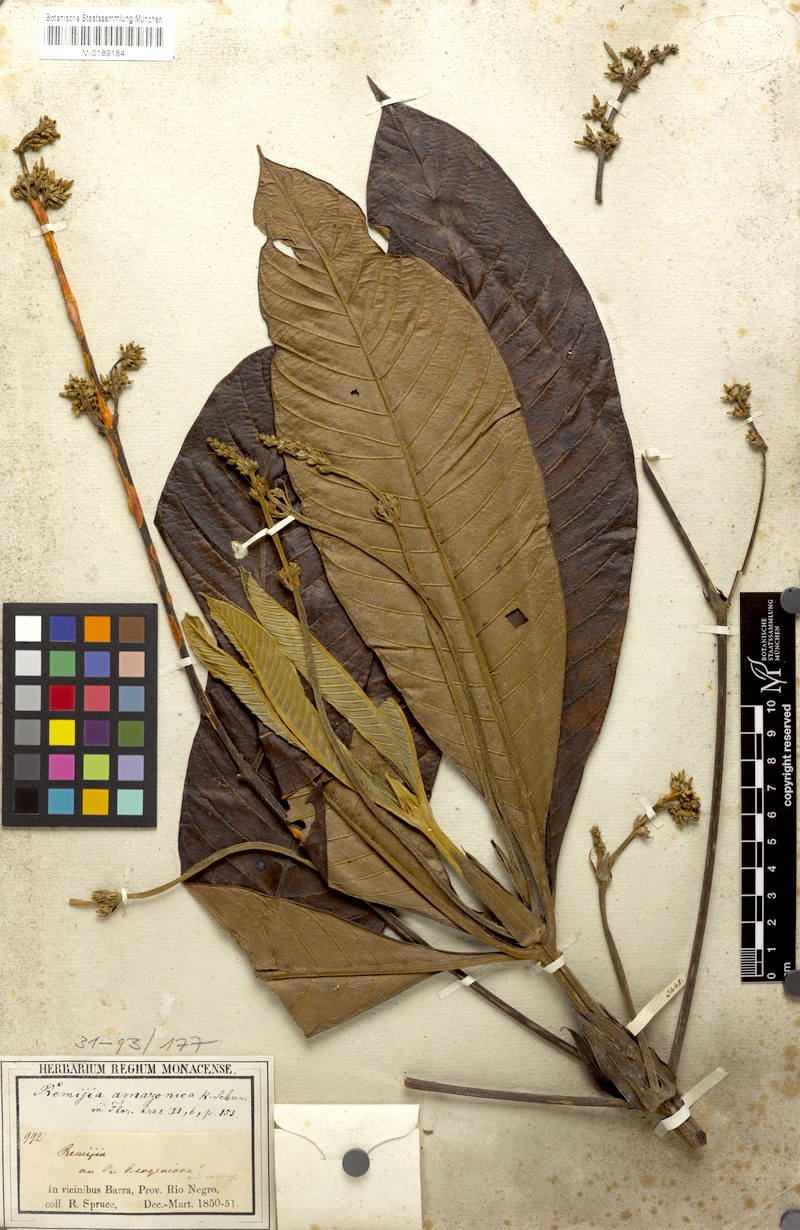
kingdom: Plantae
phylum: Tracheophyta
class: Magnoliopsida
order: Gentianales
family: Rubiaceae
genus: Remijia
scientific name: Remijia amazonica
